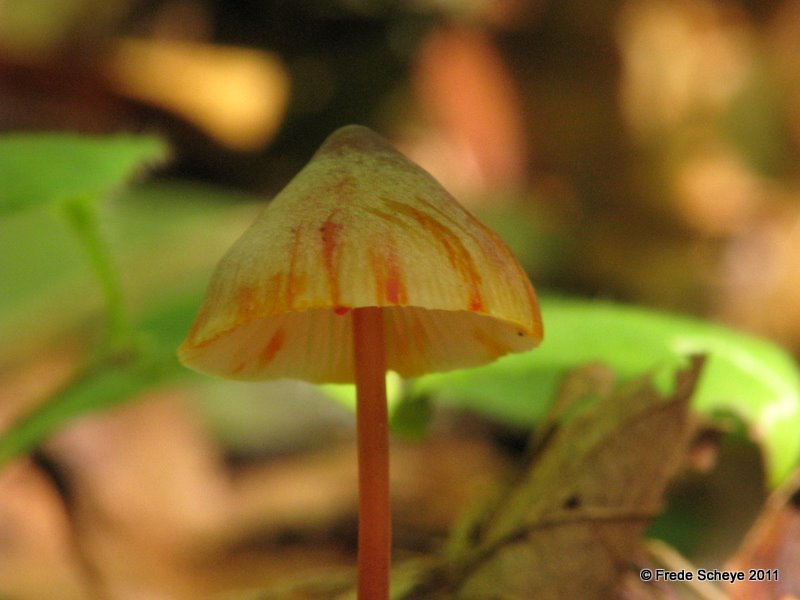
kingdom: Fungi
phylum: Basidiomycota
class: Agaricomycetes
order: Agaricales
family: Mycenaceae
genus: Mycena
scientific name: Mycena crocata
